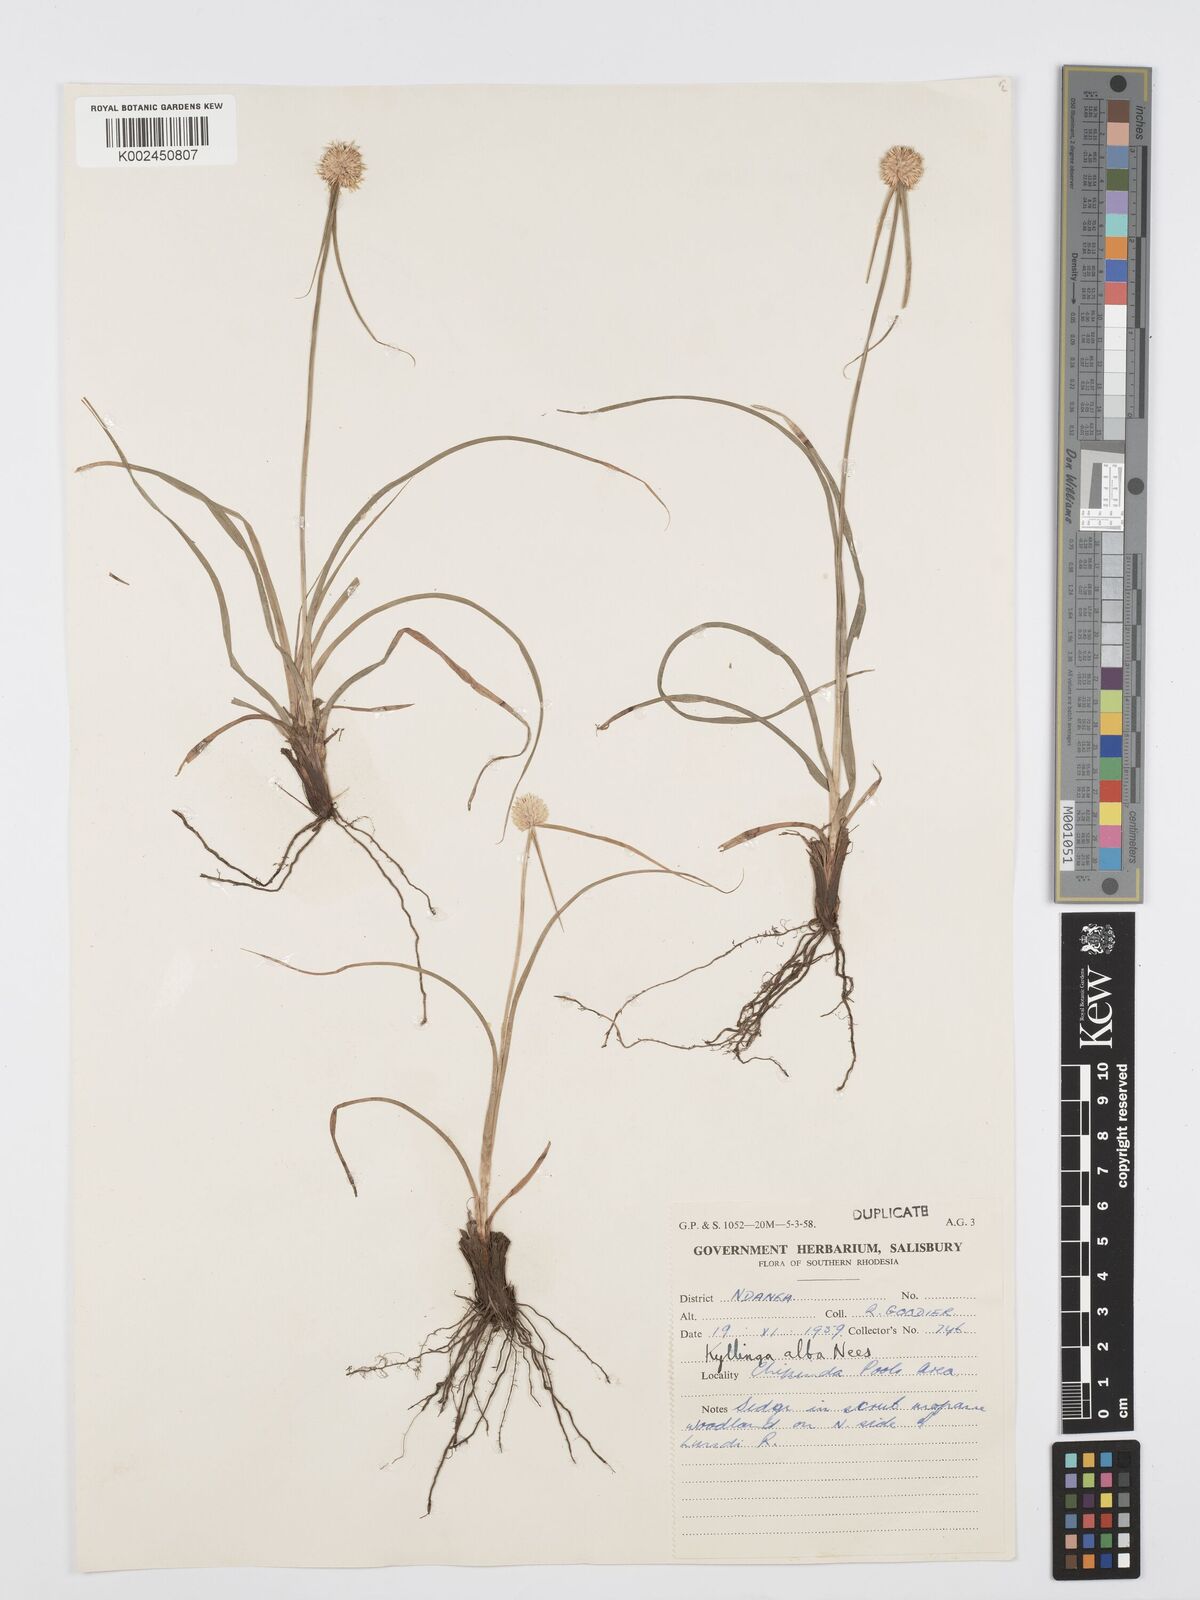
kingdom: Plantae
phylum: Tracheophyta
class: Liliopsida
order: Poales
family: Cyperaceae
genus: Cyperus
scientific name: Cyperus
